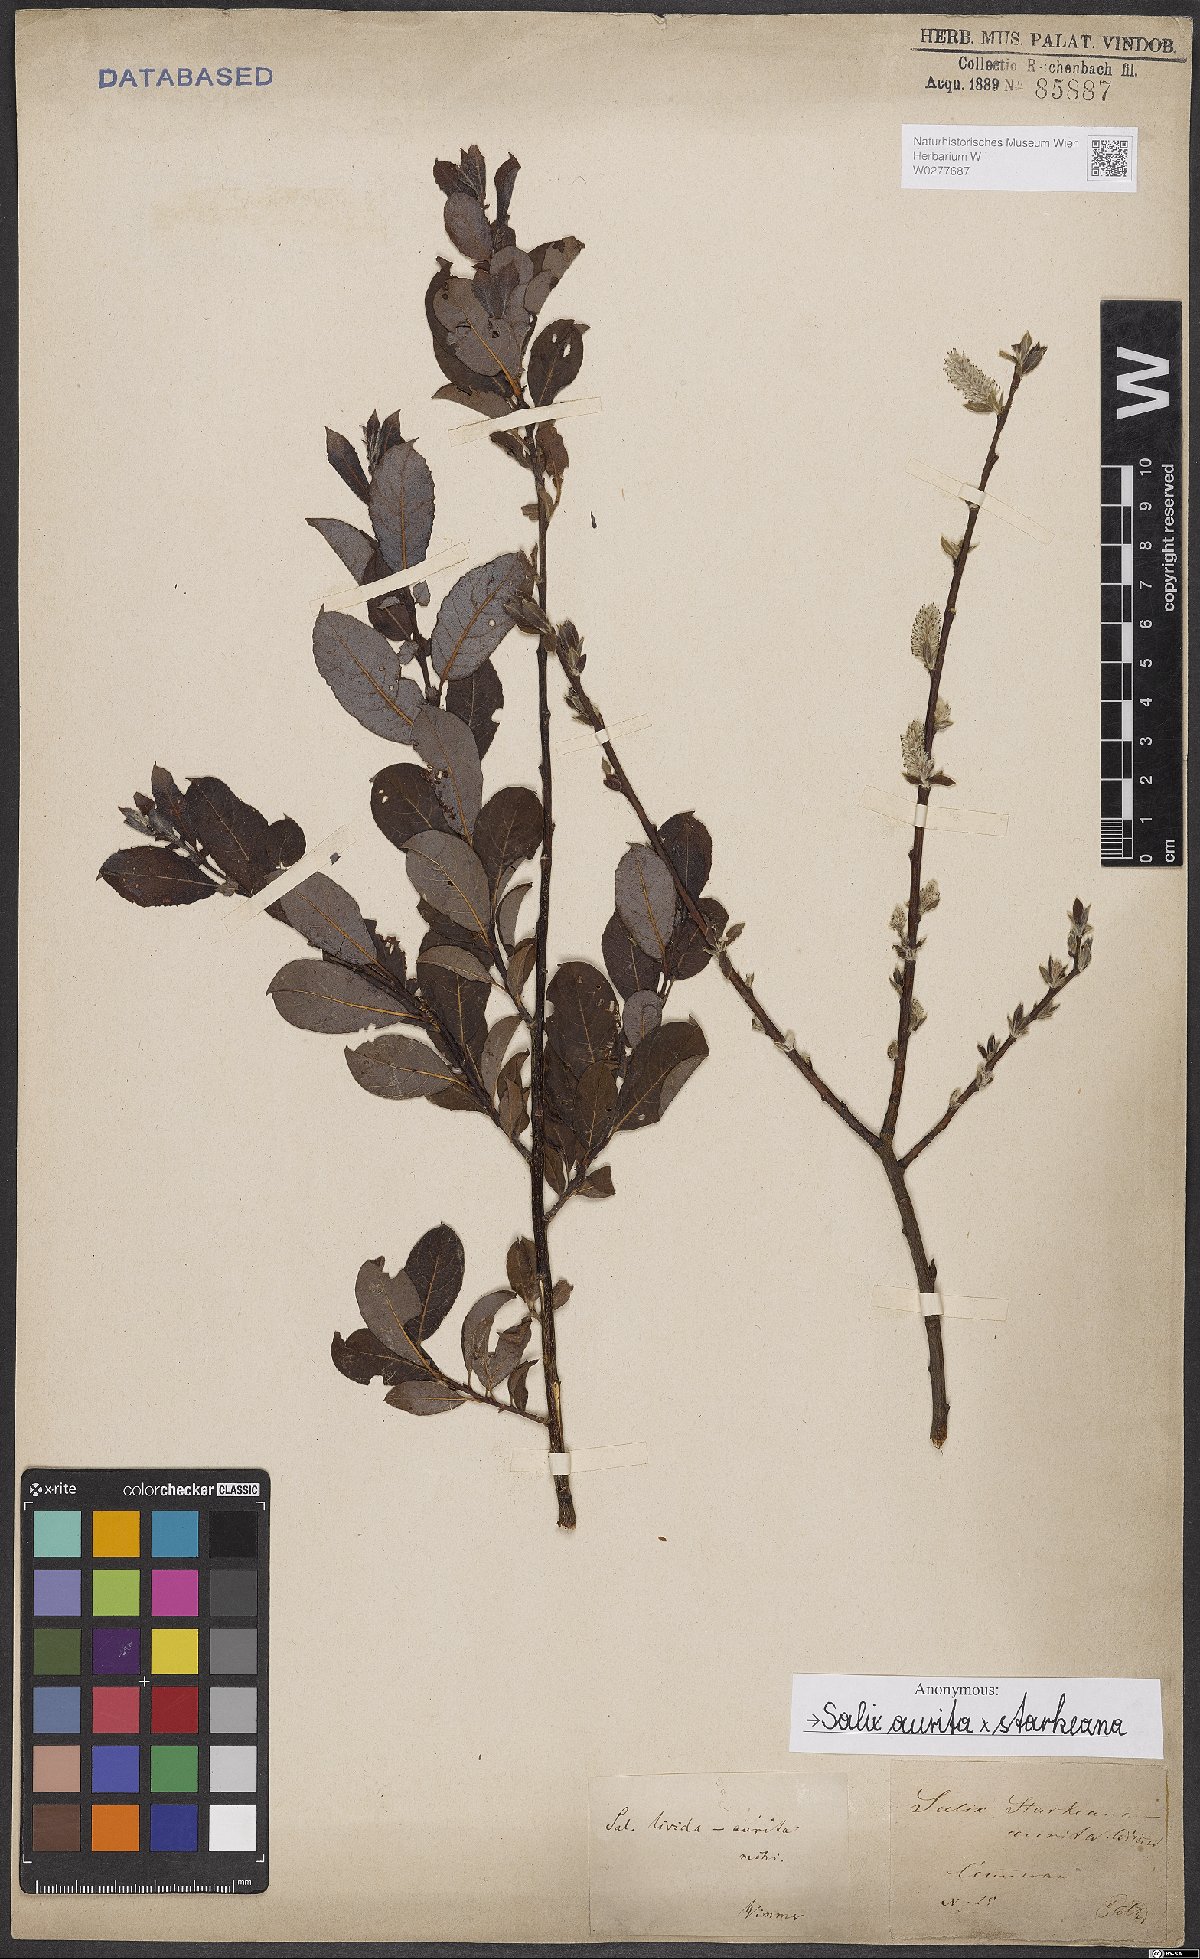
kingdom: Plantae
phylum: Tracheophyta
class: Magnoliopsida
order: Malpighiales
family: Salicaceae
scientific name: Salicaceae
